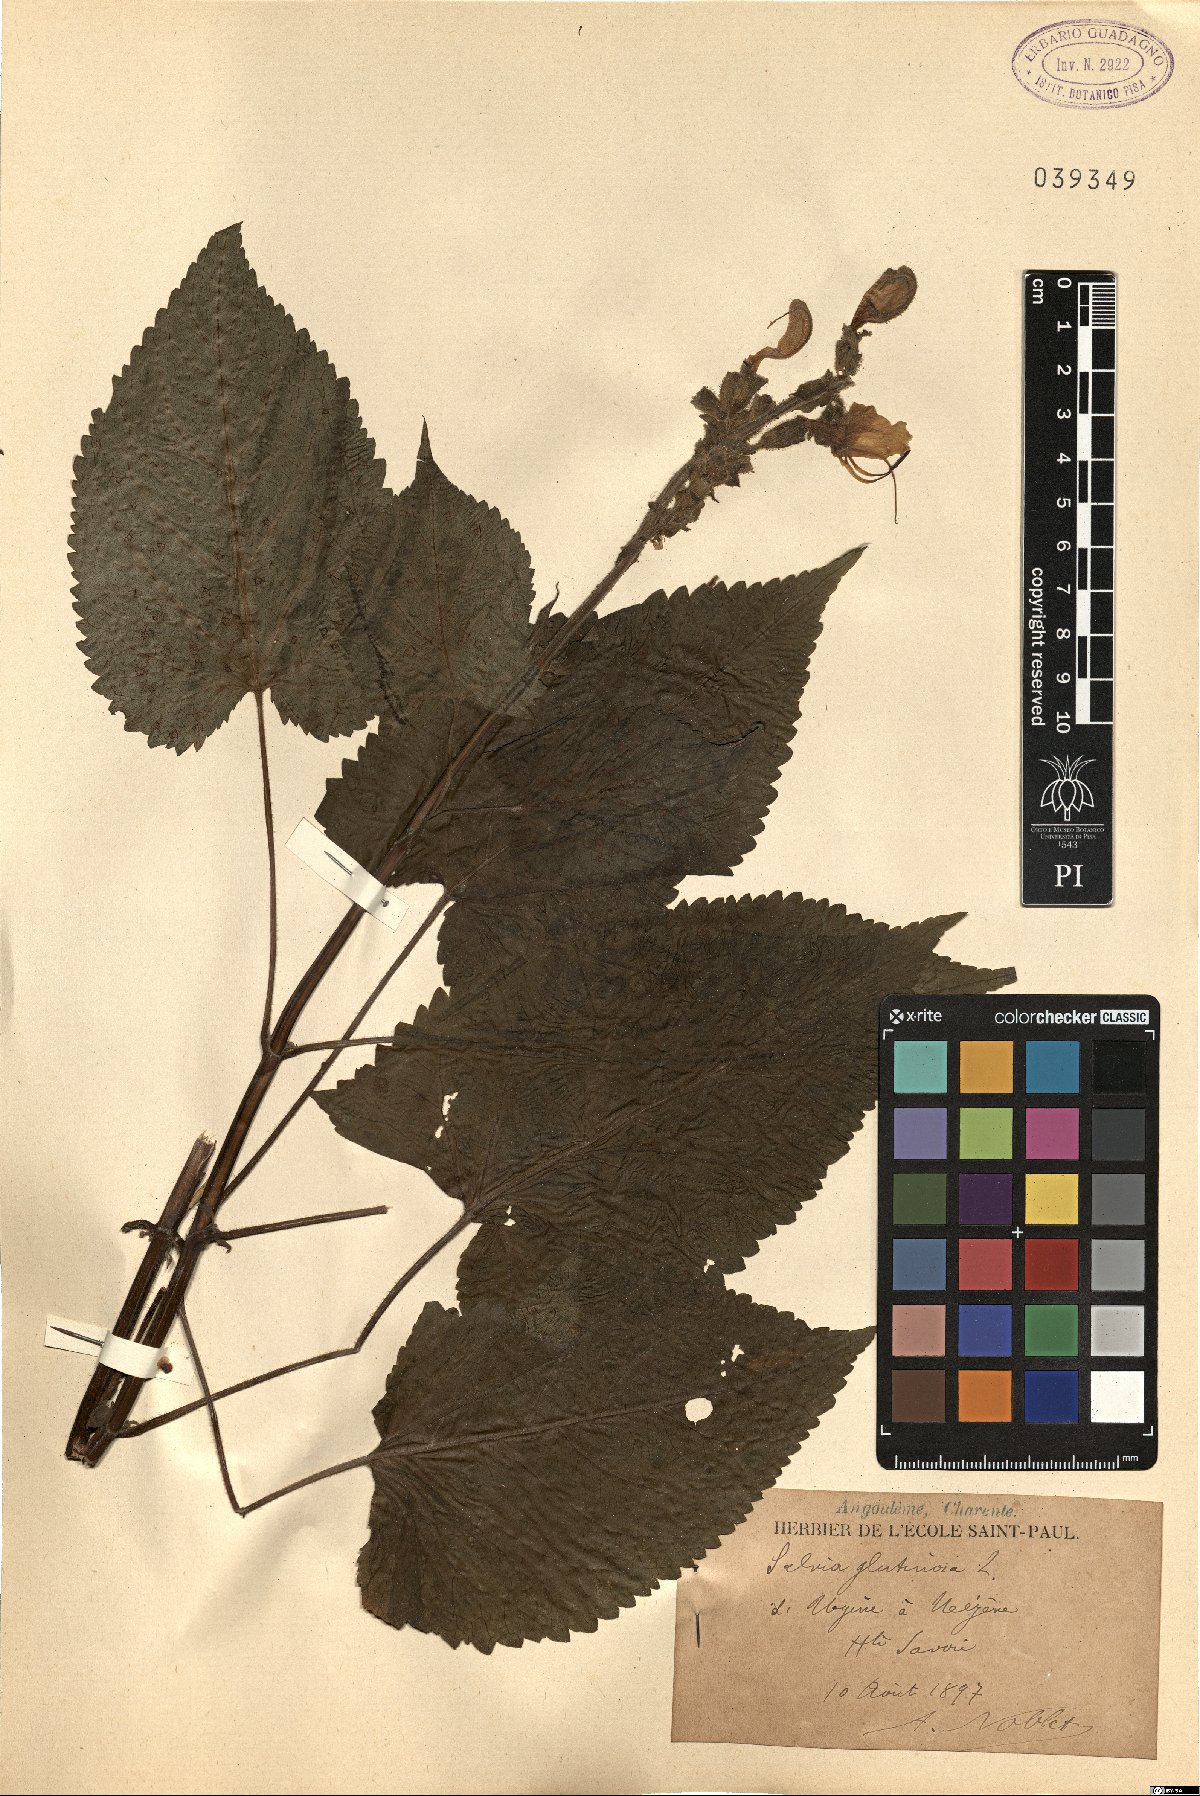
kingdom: Plantae
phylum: Tracheophyta
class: Magnoliopsida
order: Lamiales
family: Lamiaceae
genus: Salvia
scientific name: Salvia glutinosa
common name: Sticky clary
